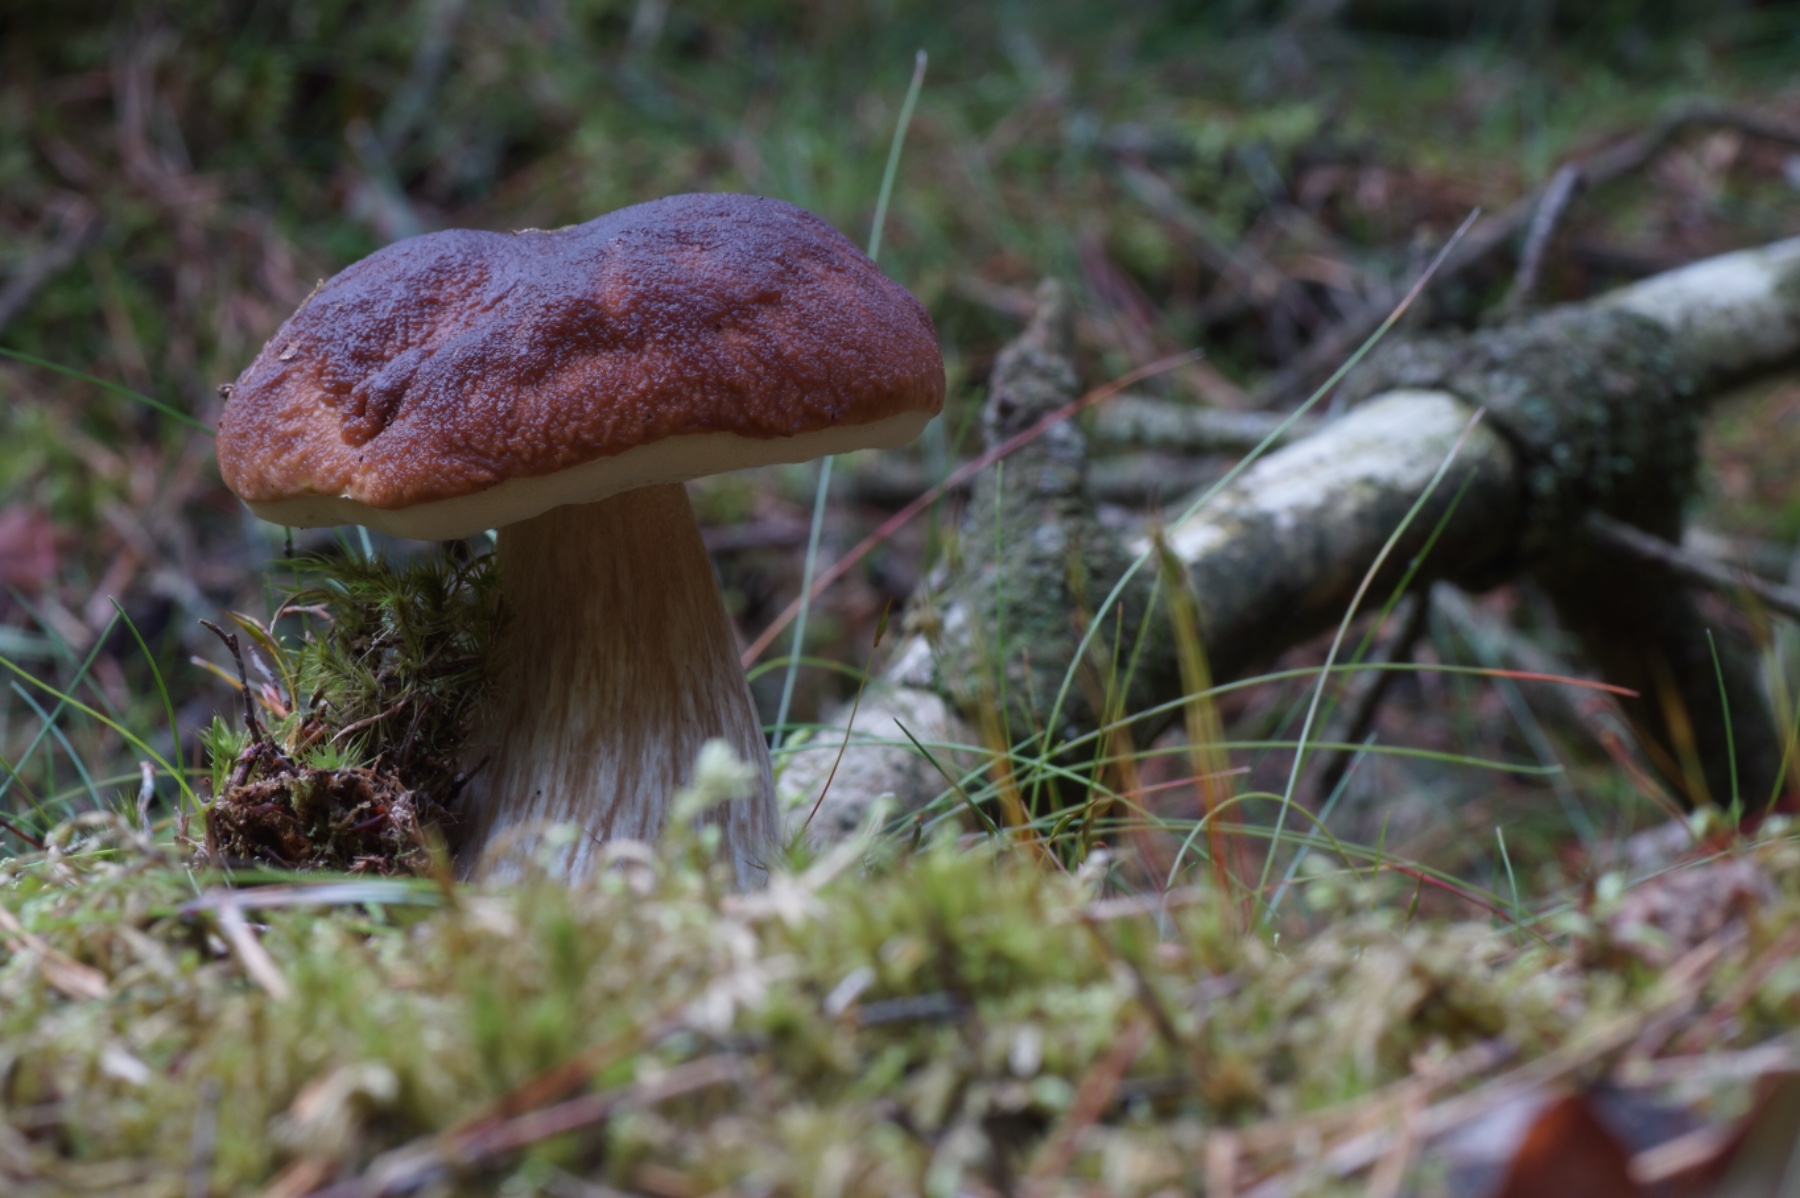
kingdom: Fungi
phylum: Basidiomycota
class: Agaricomycetes
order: Boletales
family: Boletaceae
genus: Boletus
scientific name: Boletus edulis
